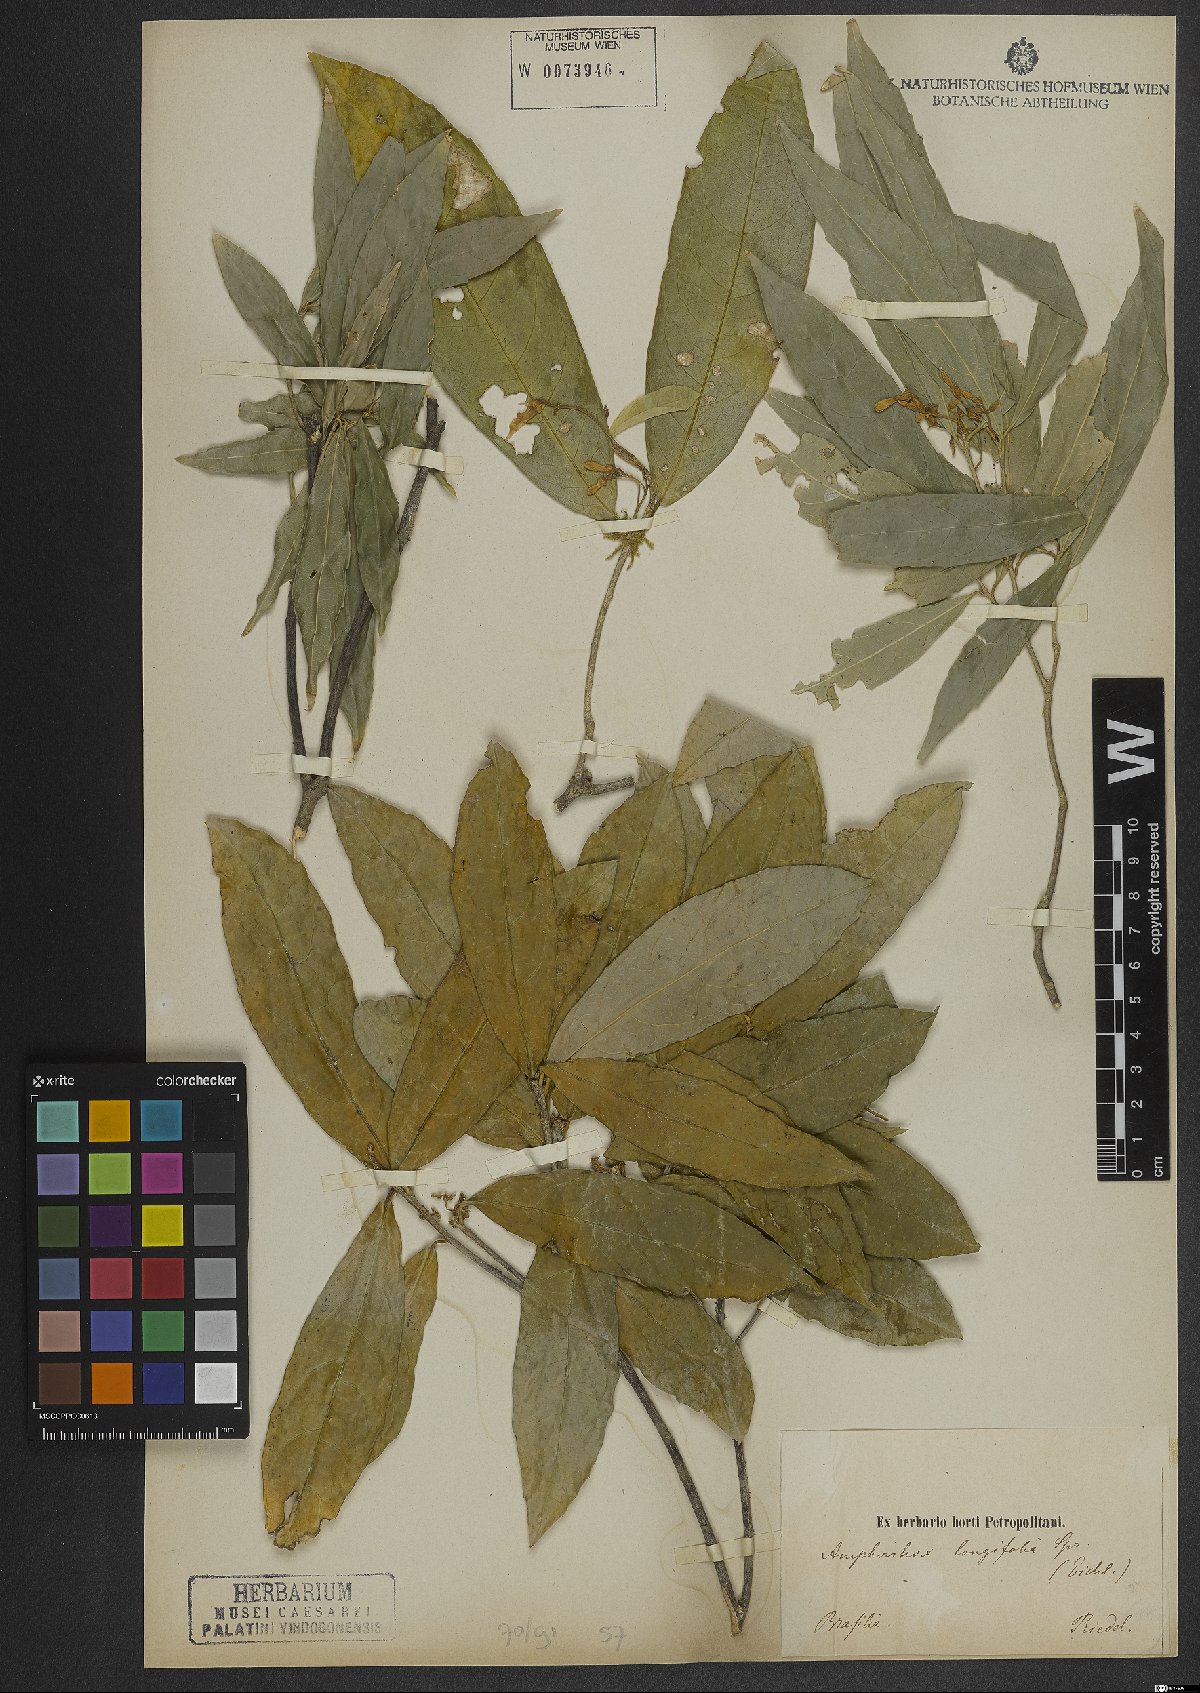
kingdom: Plantae
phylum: Tracheophyta
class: Magnoliopsida
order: Malpighiales
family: Violaceae
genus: Amphirrhox
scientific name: Amphirrhox longifolia
